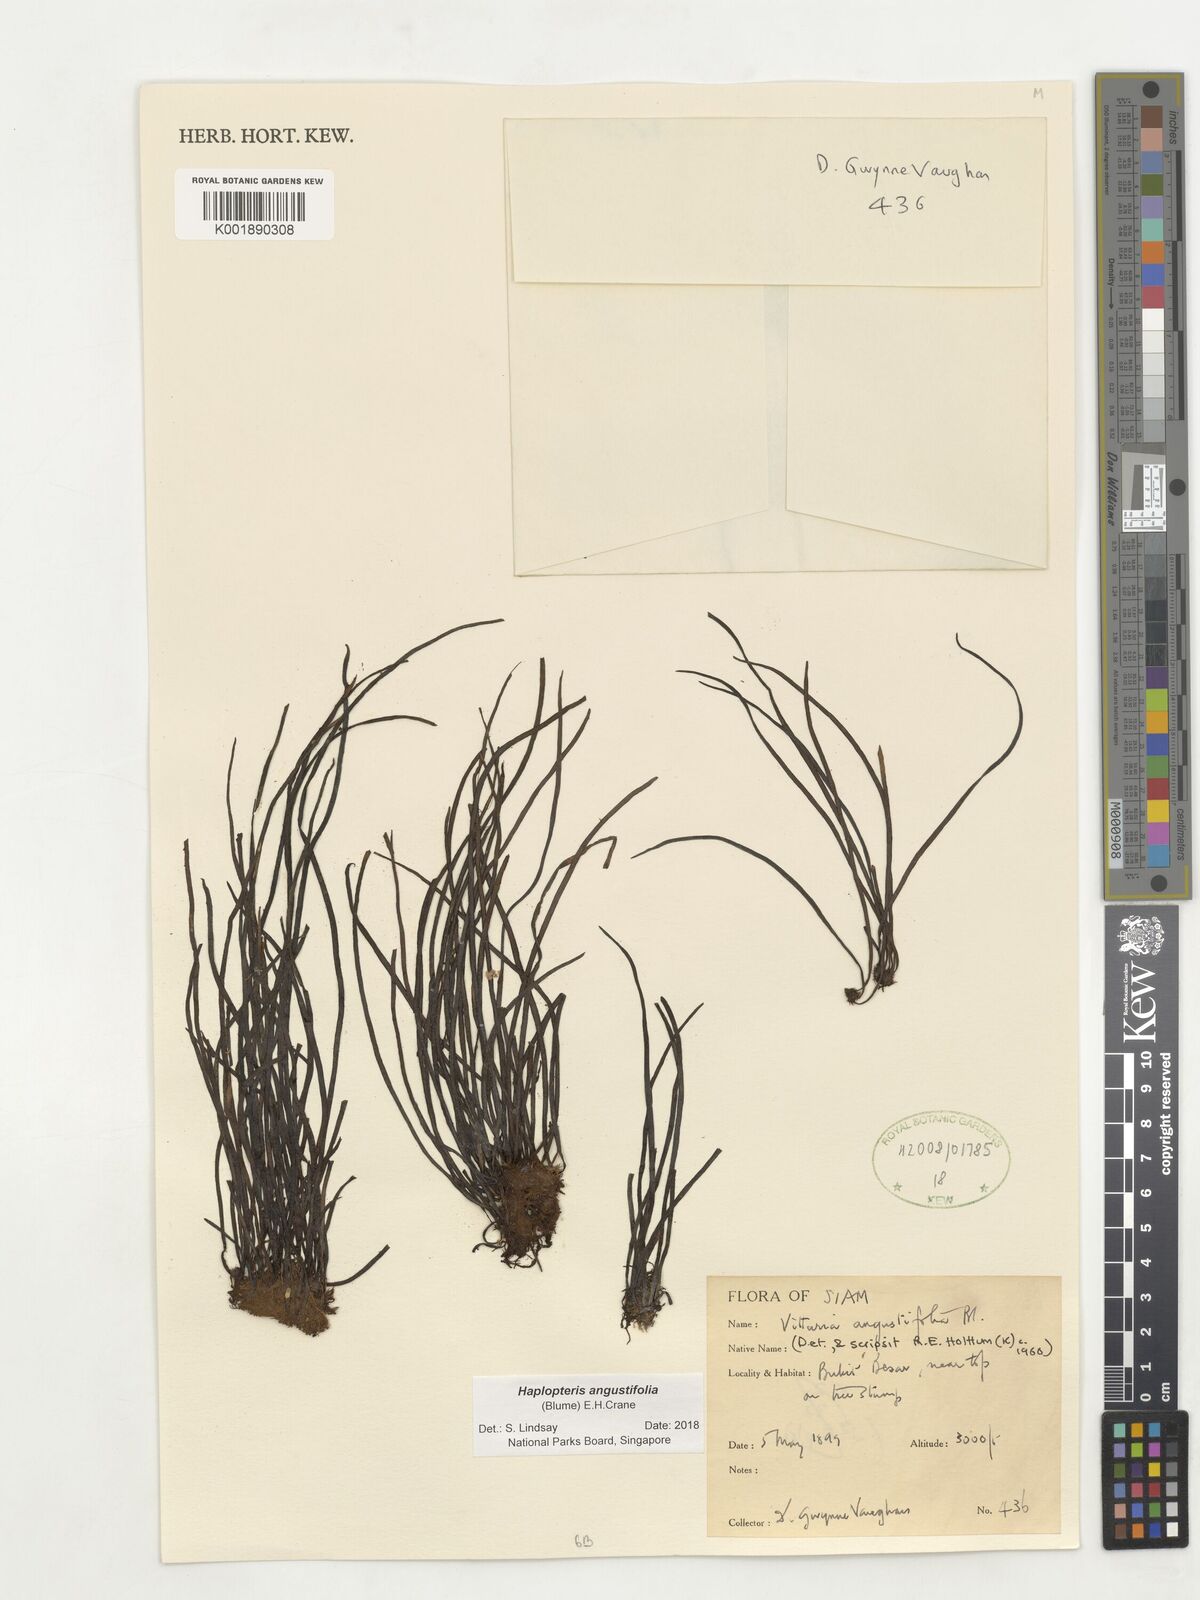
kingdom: Plantae
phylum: Tracheophyta
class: Polypodiopsida
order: Polypodiales
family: Pteridaceae
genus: Haplopteris
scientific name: Haplopteris angustifolia
